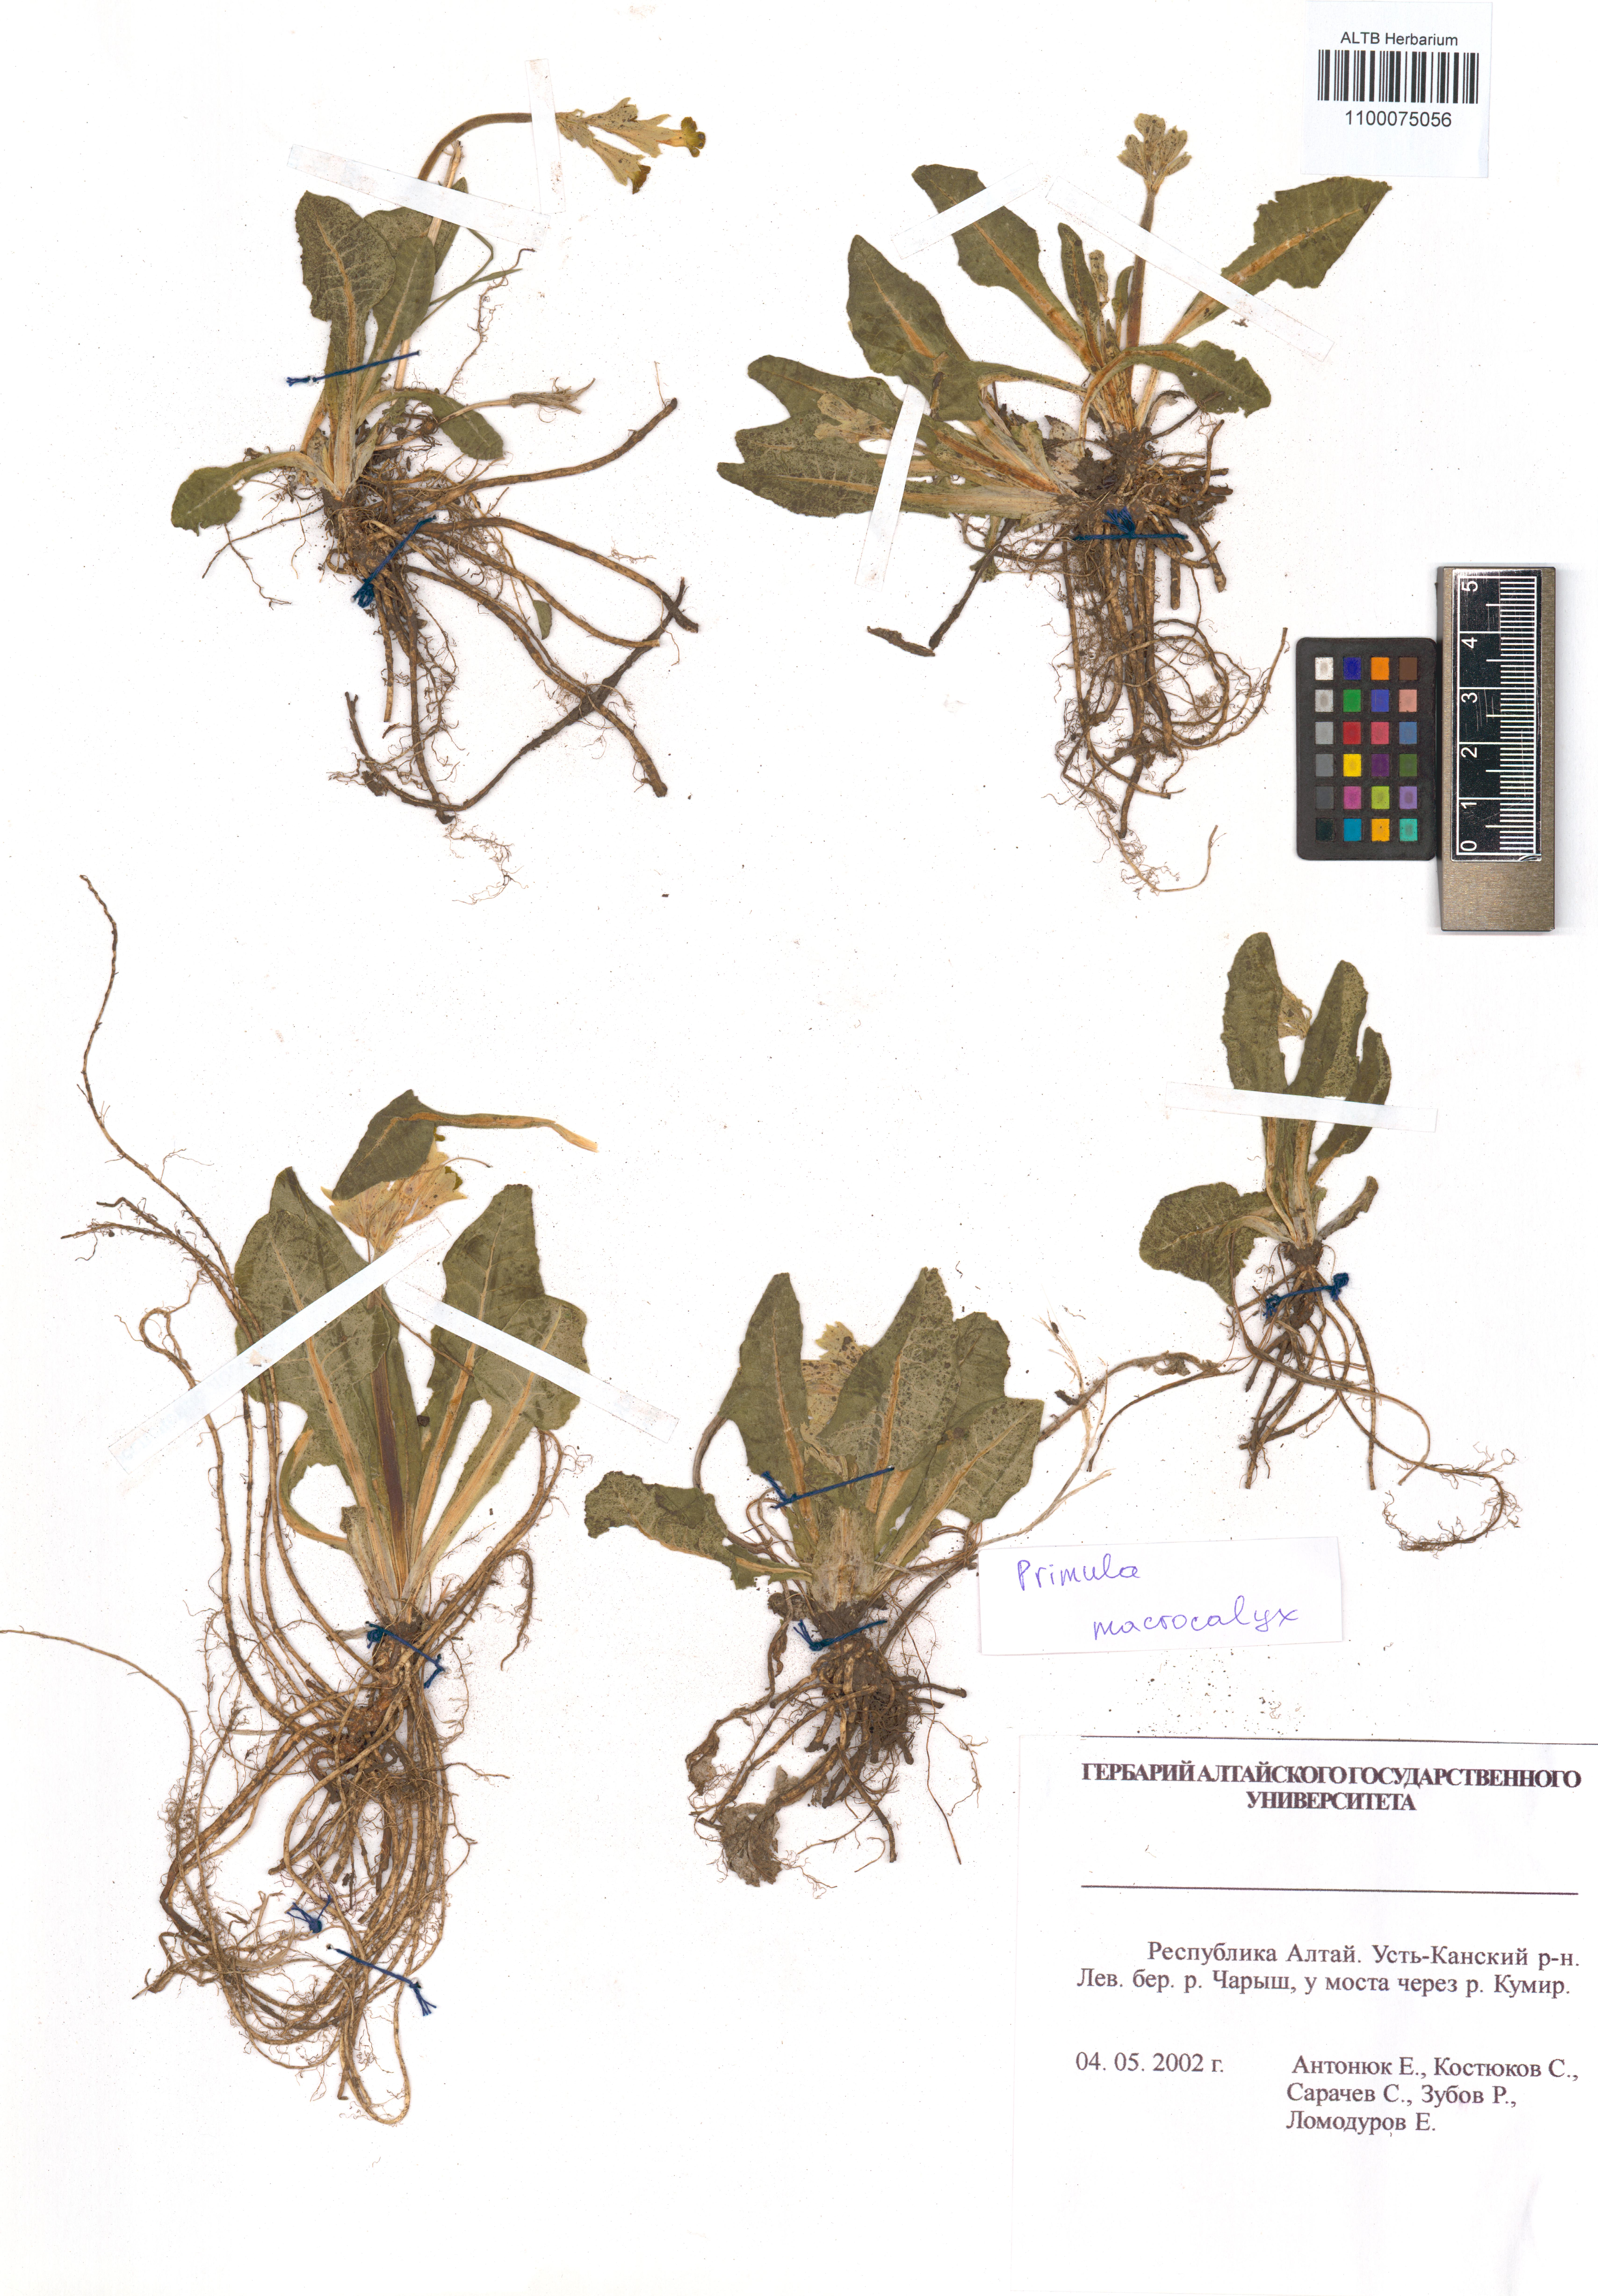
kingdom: Plantae
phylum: Tracheophyta
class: Magnoliopsida
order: Ericales
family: Primulaceae
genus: Primula
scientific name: Primula veris
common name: Cowslip
